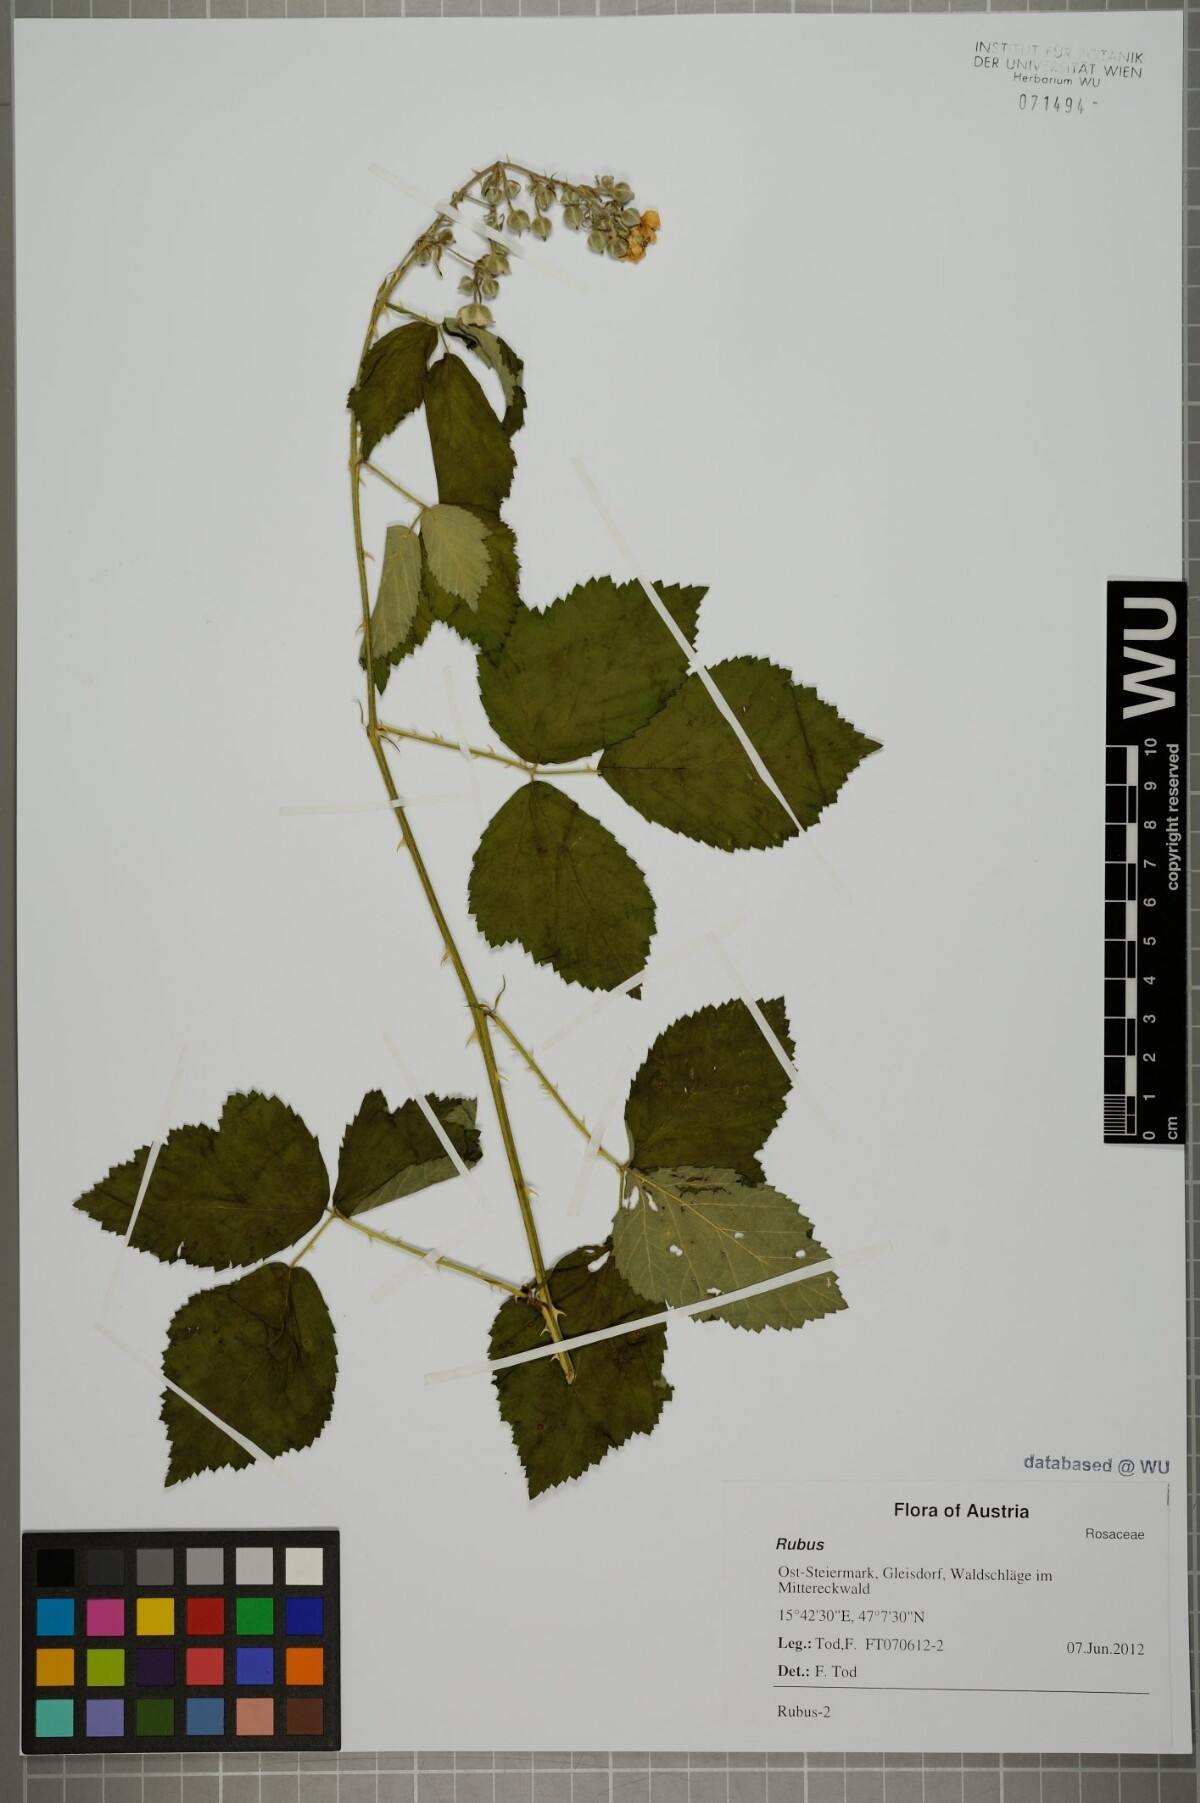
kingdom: Plantae
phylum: Tracheophyta
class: Magnoliopsida
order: Rosales
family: Rosaceae
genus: Rubus
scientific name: Rubus
